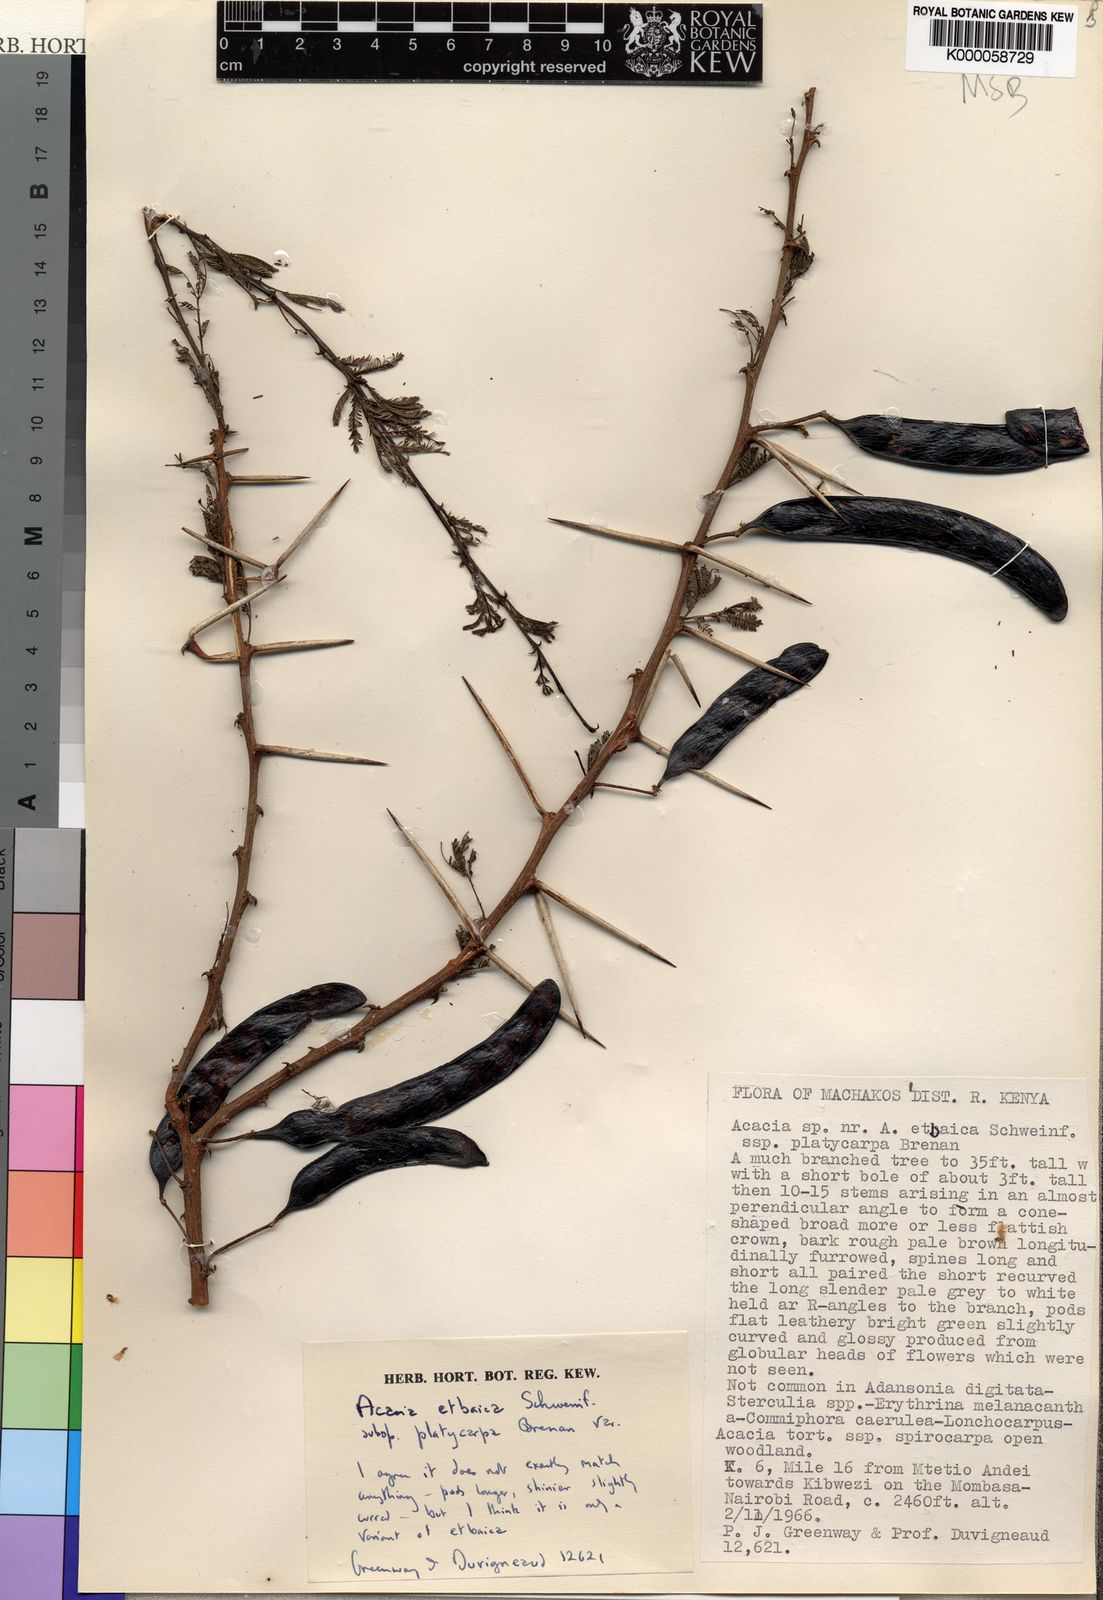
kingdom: Plantae
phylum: Tracheophyta
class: Magnoliopsida
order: Fabales
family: Fabaceae
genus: Vachellia
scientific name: Vachellia etbaica
